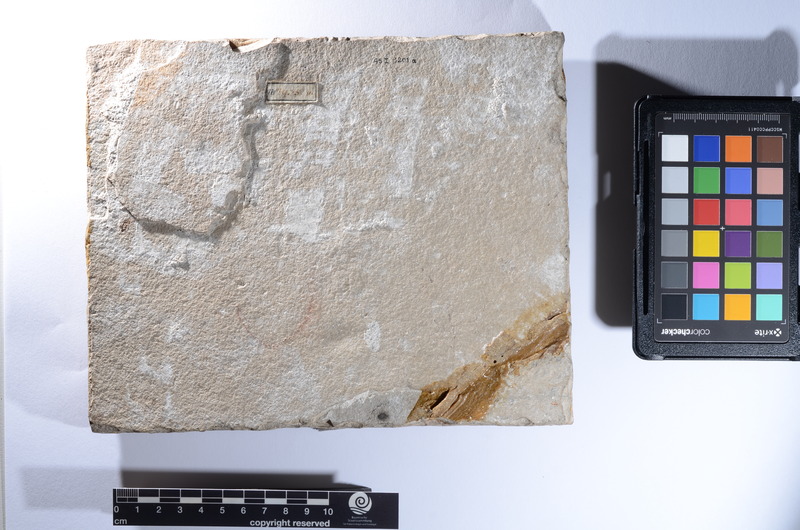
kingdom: Animalia
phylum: Chordata
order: Perciformes
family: Menidae
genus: Mene
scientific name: Mene rhombea
